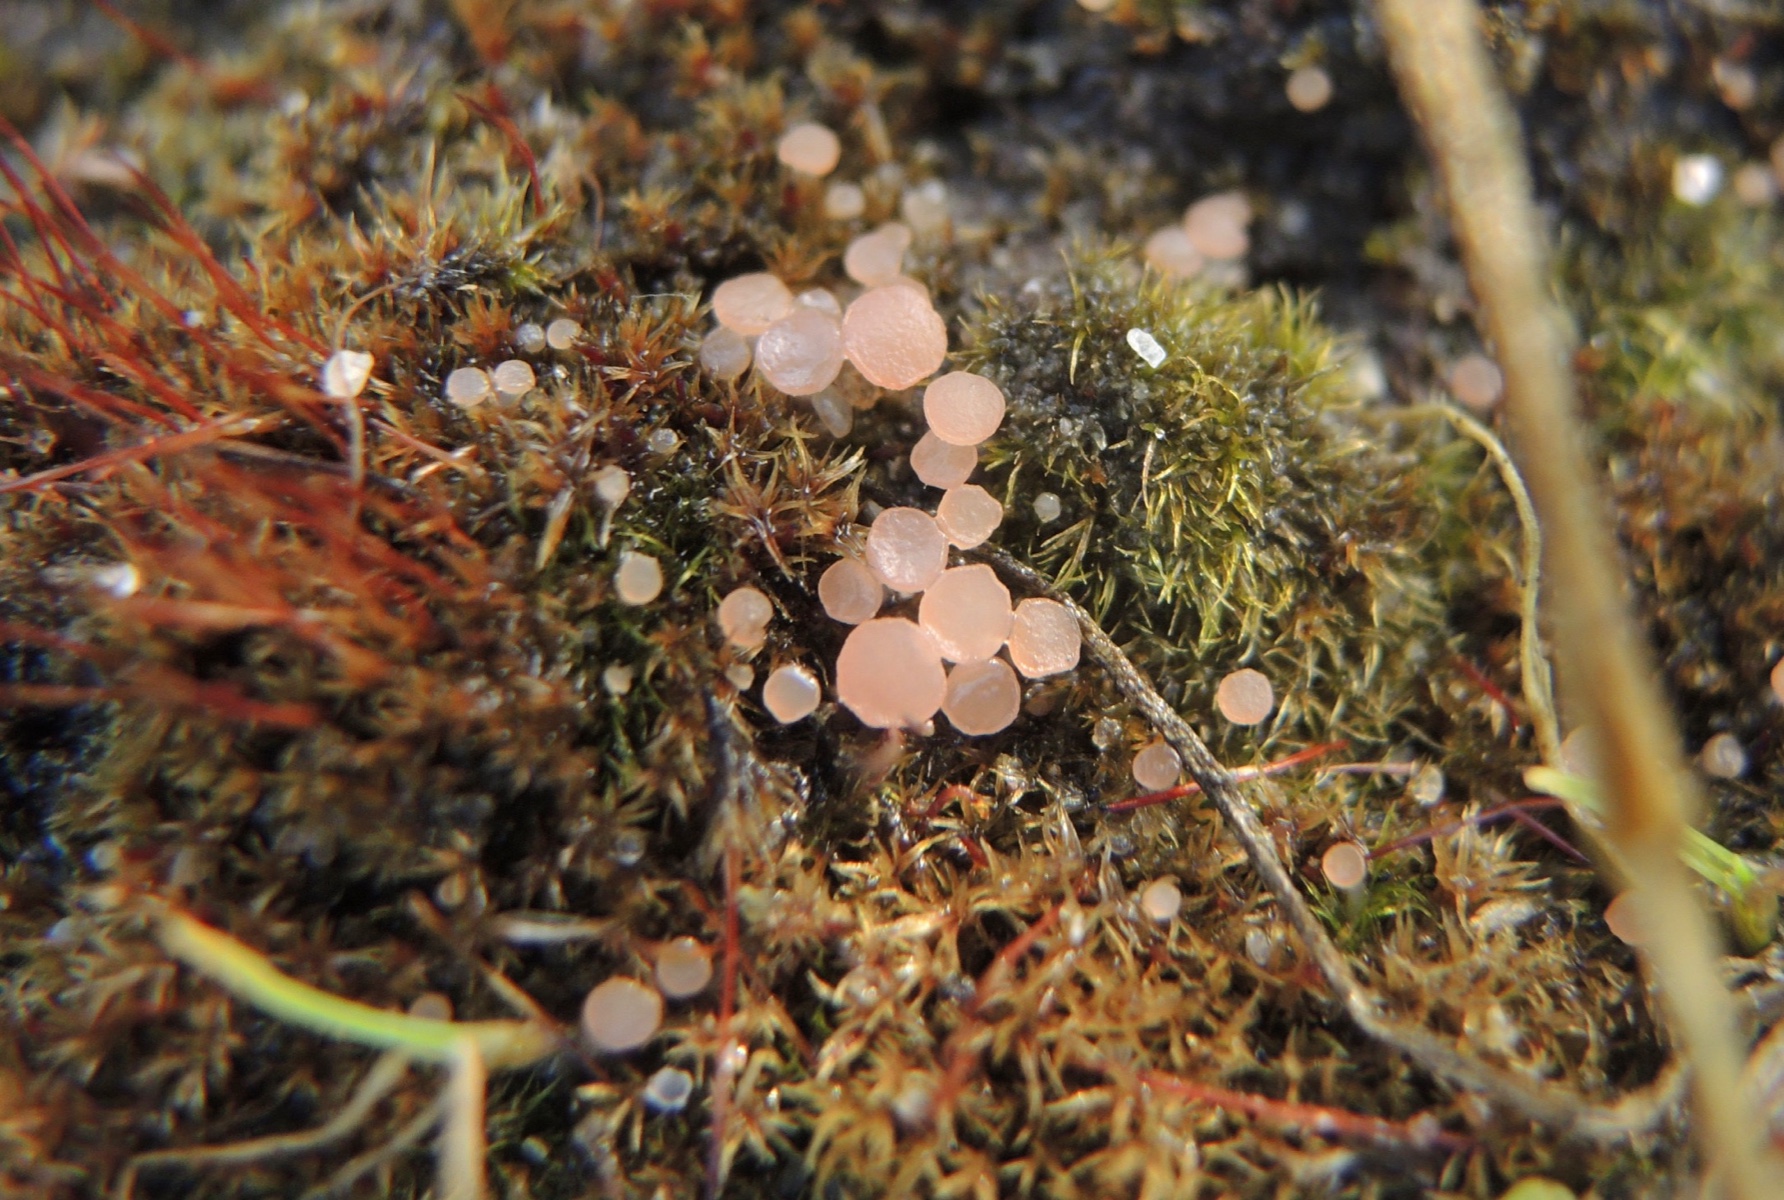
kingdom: Fungi
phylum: Ascomycota
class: Leotiomycetes
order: Helotiales
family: Hyaloscyphaceae
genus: Roseodiscus
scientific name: Roseodiscus formosus
